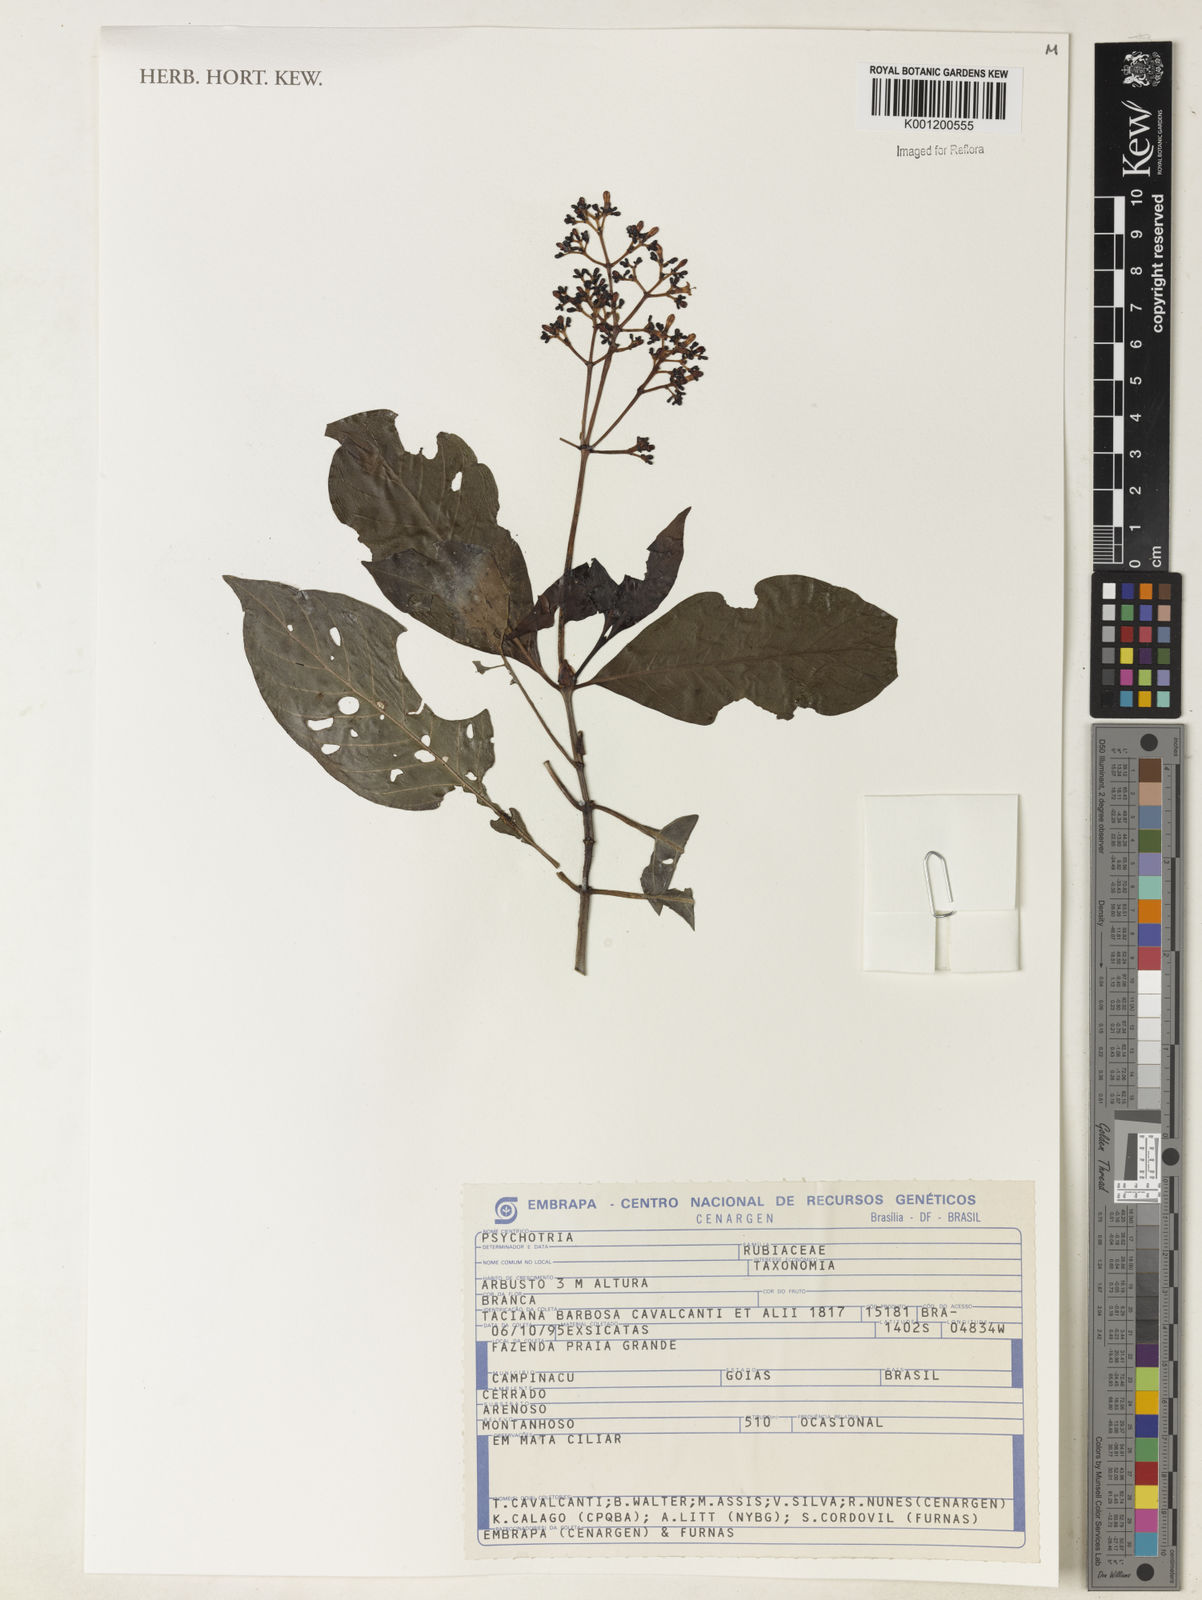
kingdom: Plantae
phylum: Tracheophyta
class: Magnoliopsida
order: Gentianales
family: Rubiaceae
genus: Psychotria
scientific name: Psychotria
